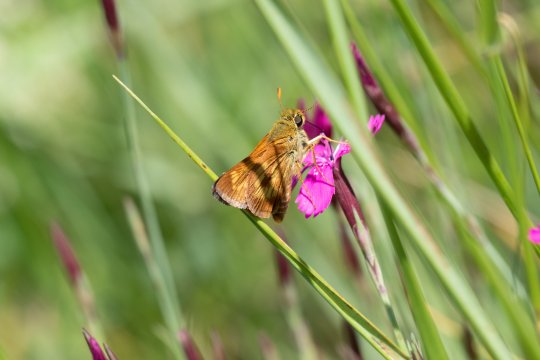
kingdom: Animalia
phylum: Arthropoda
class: Insecta
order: Lepidoptera
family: Hesperiidae
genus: Polites
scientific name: Polites
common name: Long Dash Skipper
